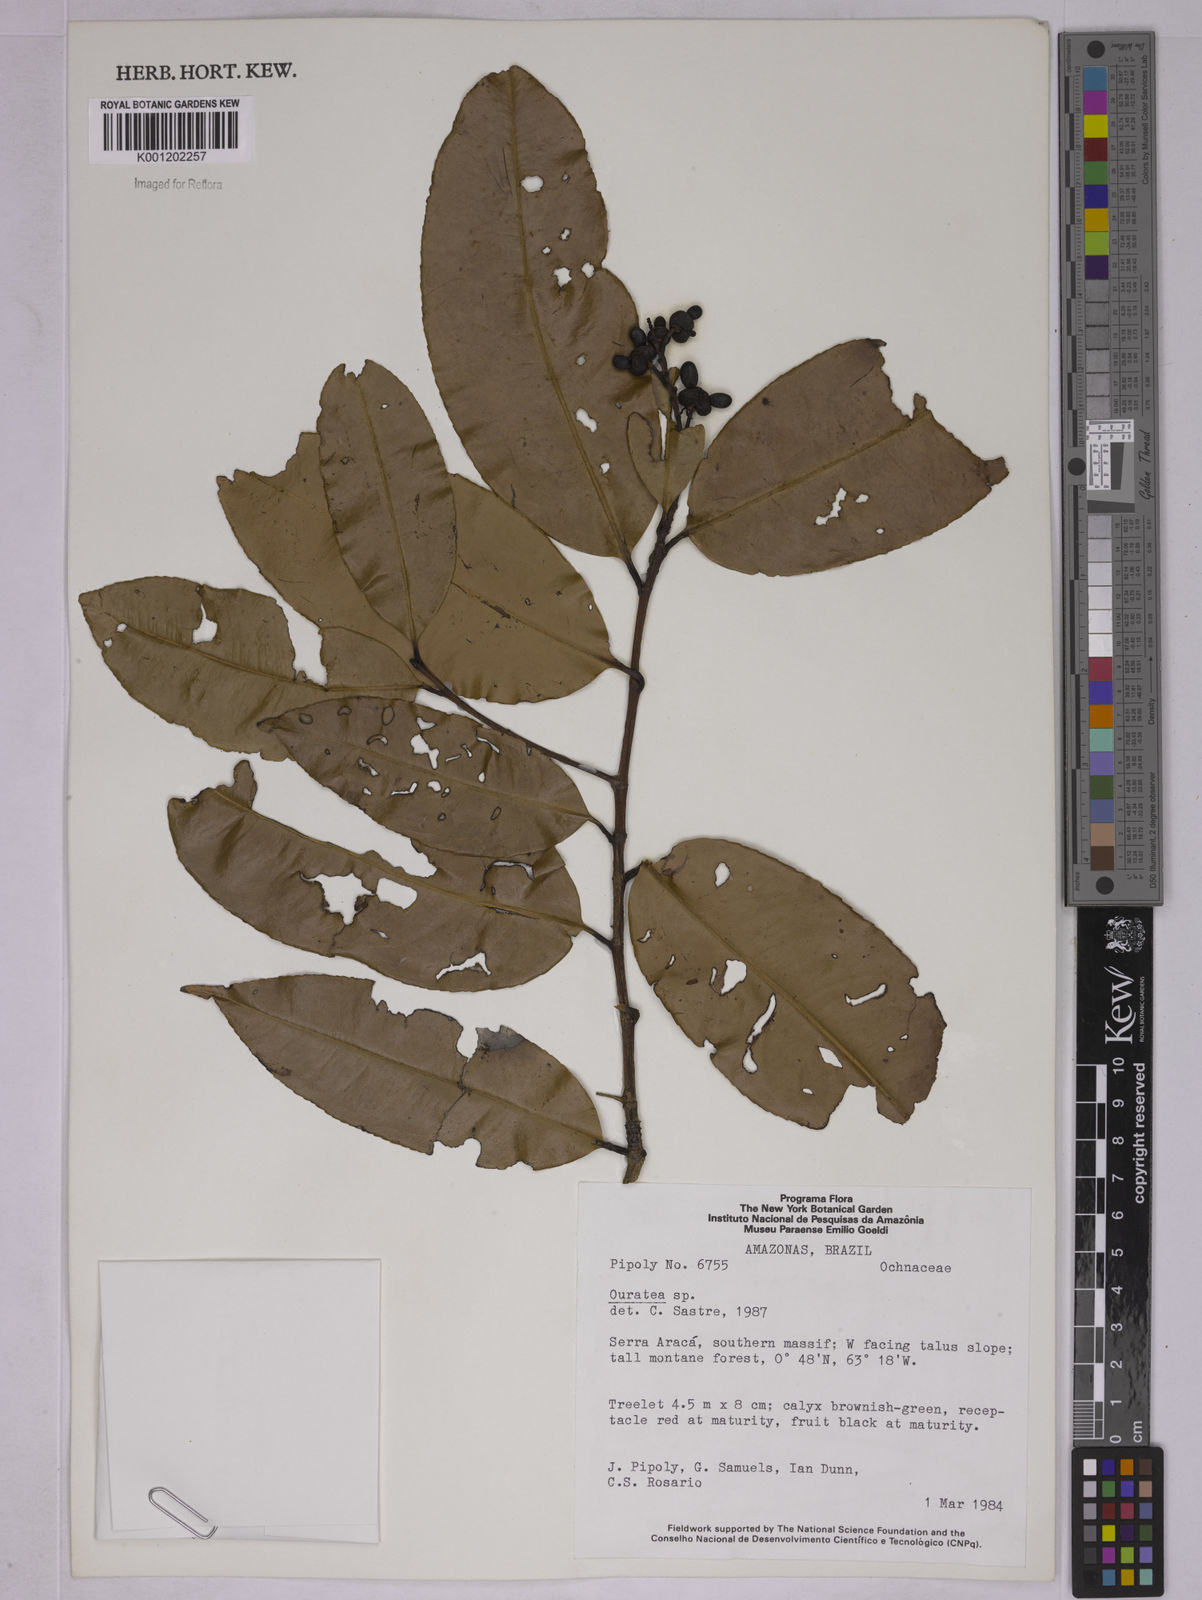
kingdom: Plantae
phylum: Tracheophyta
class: Magnoliopsida
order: Malpighiales
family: Ochnaceae
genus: Ouratea
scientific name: Ouratea
